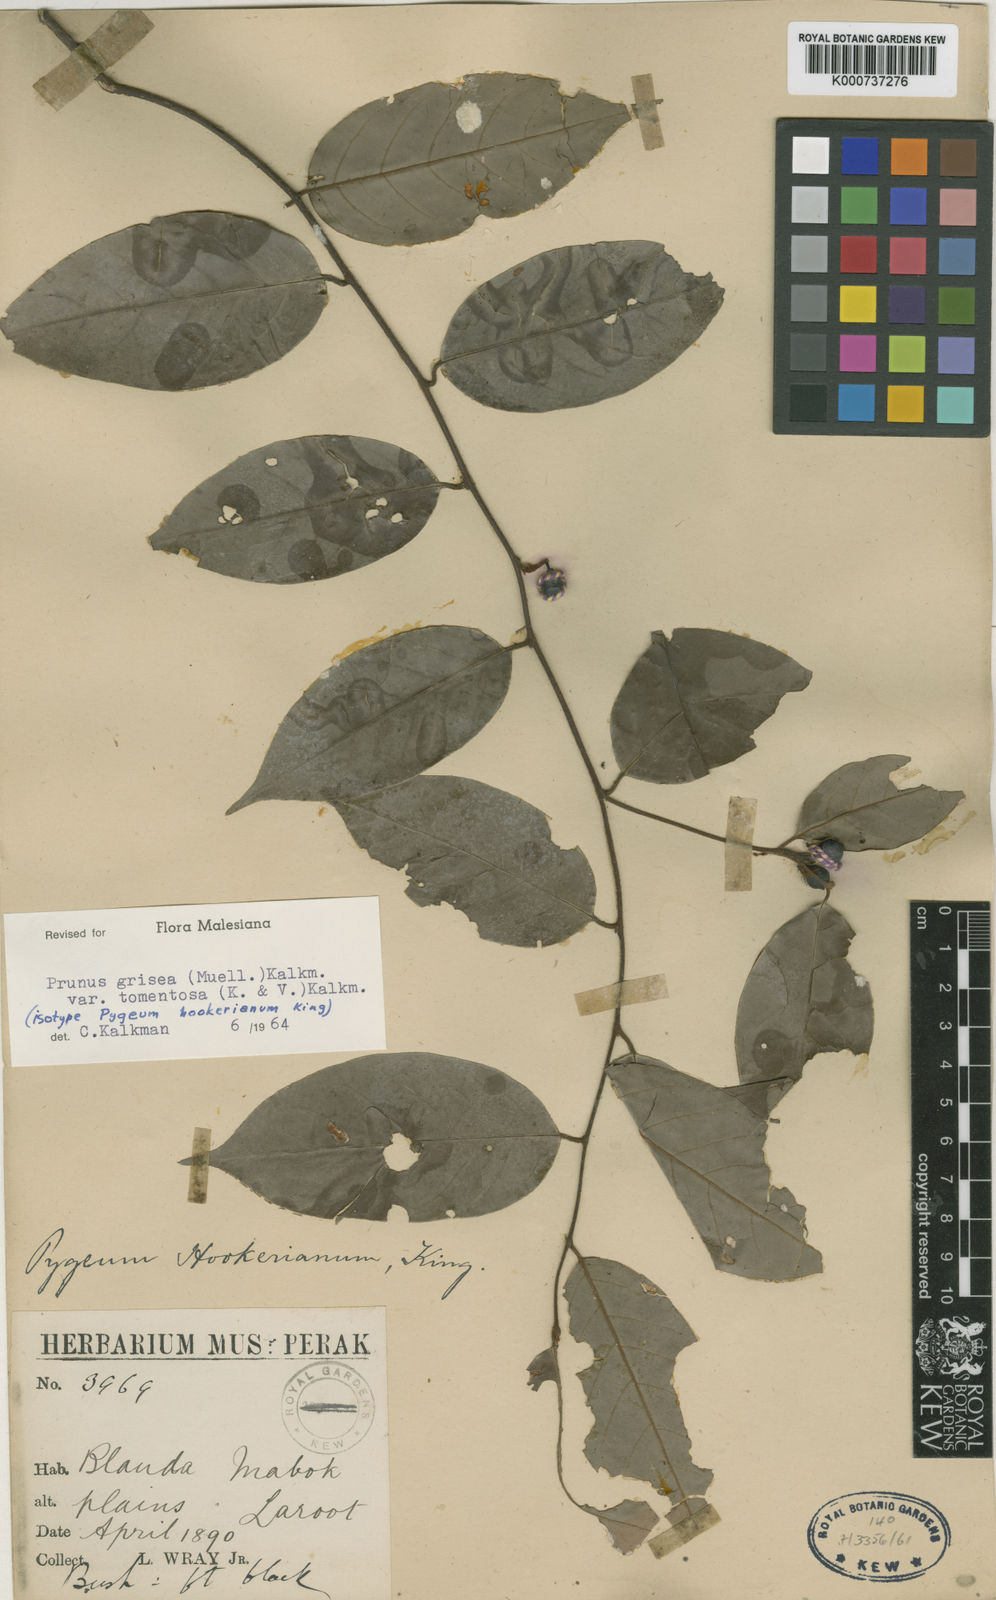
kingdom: Plantae
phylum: Tracheophyta
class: Magnoliopsida
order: Rosales
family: Rosaceae
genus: Prunus
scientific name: Prunus grisea
